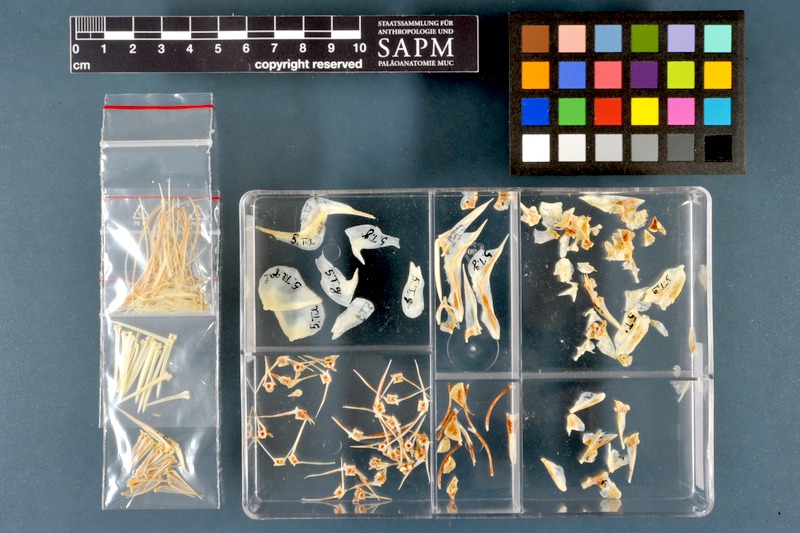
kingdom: Animalia
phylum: Chordata
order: Perciformes
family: Cichlidae
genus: Sarotherodon
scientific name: Sarotherodon galilaeus
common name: Mango tilapia
